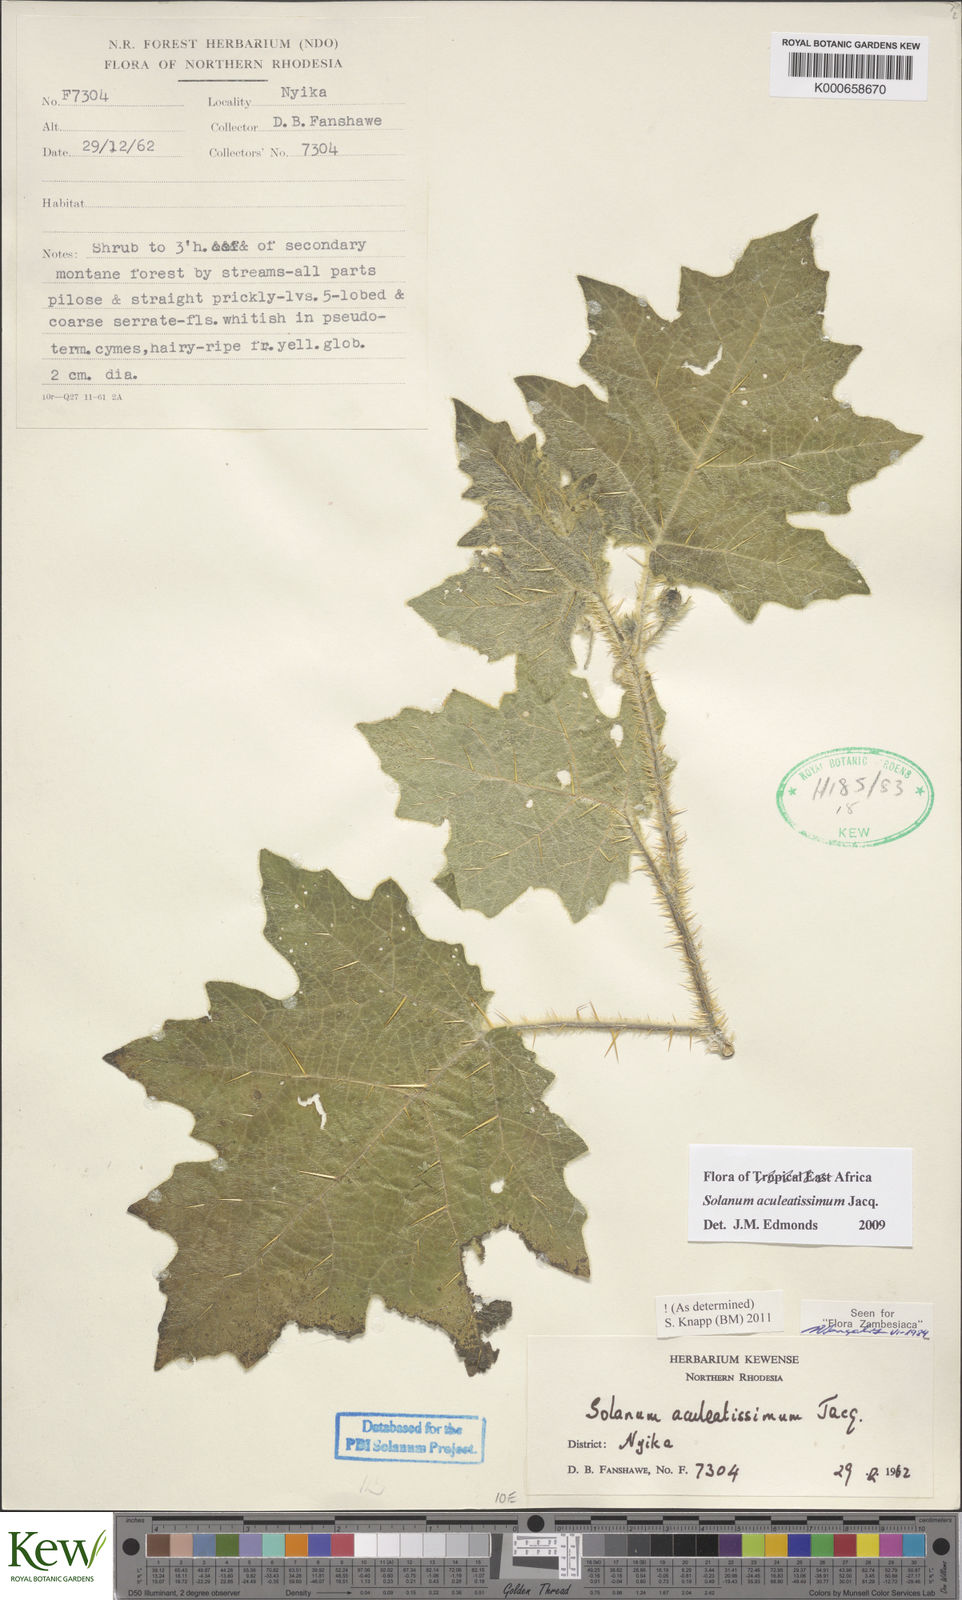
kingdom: Plantae
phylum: Tracheophyta
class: Magnoliopsida
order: Solanales
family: Solanaceae
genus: Solanum
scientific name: Solanum aculeatissimum
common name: Dutch eggplant
